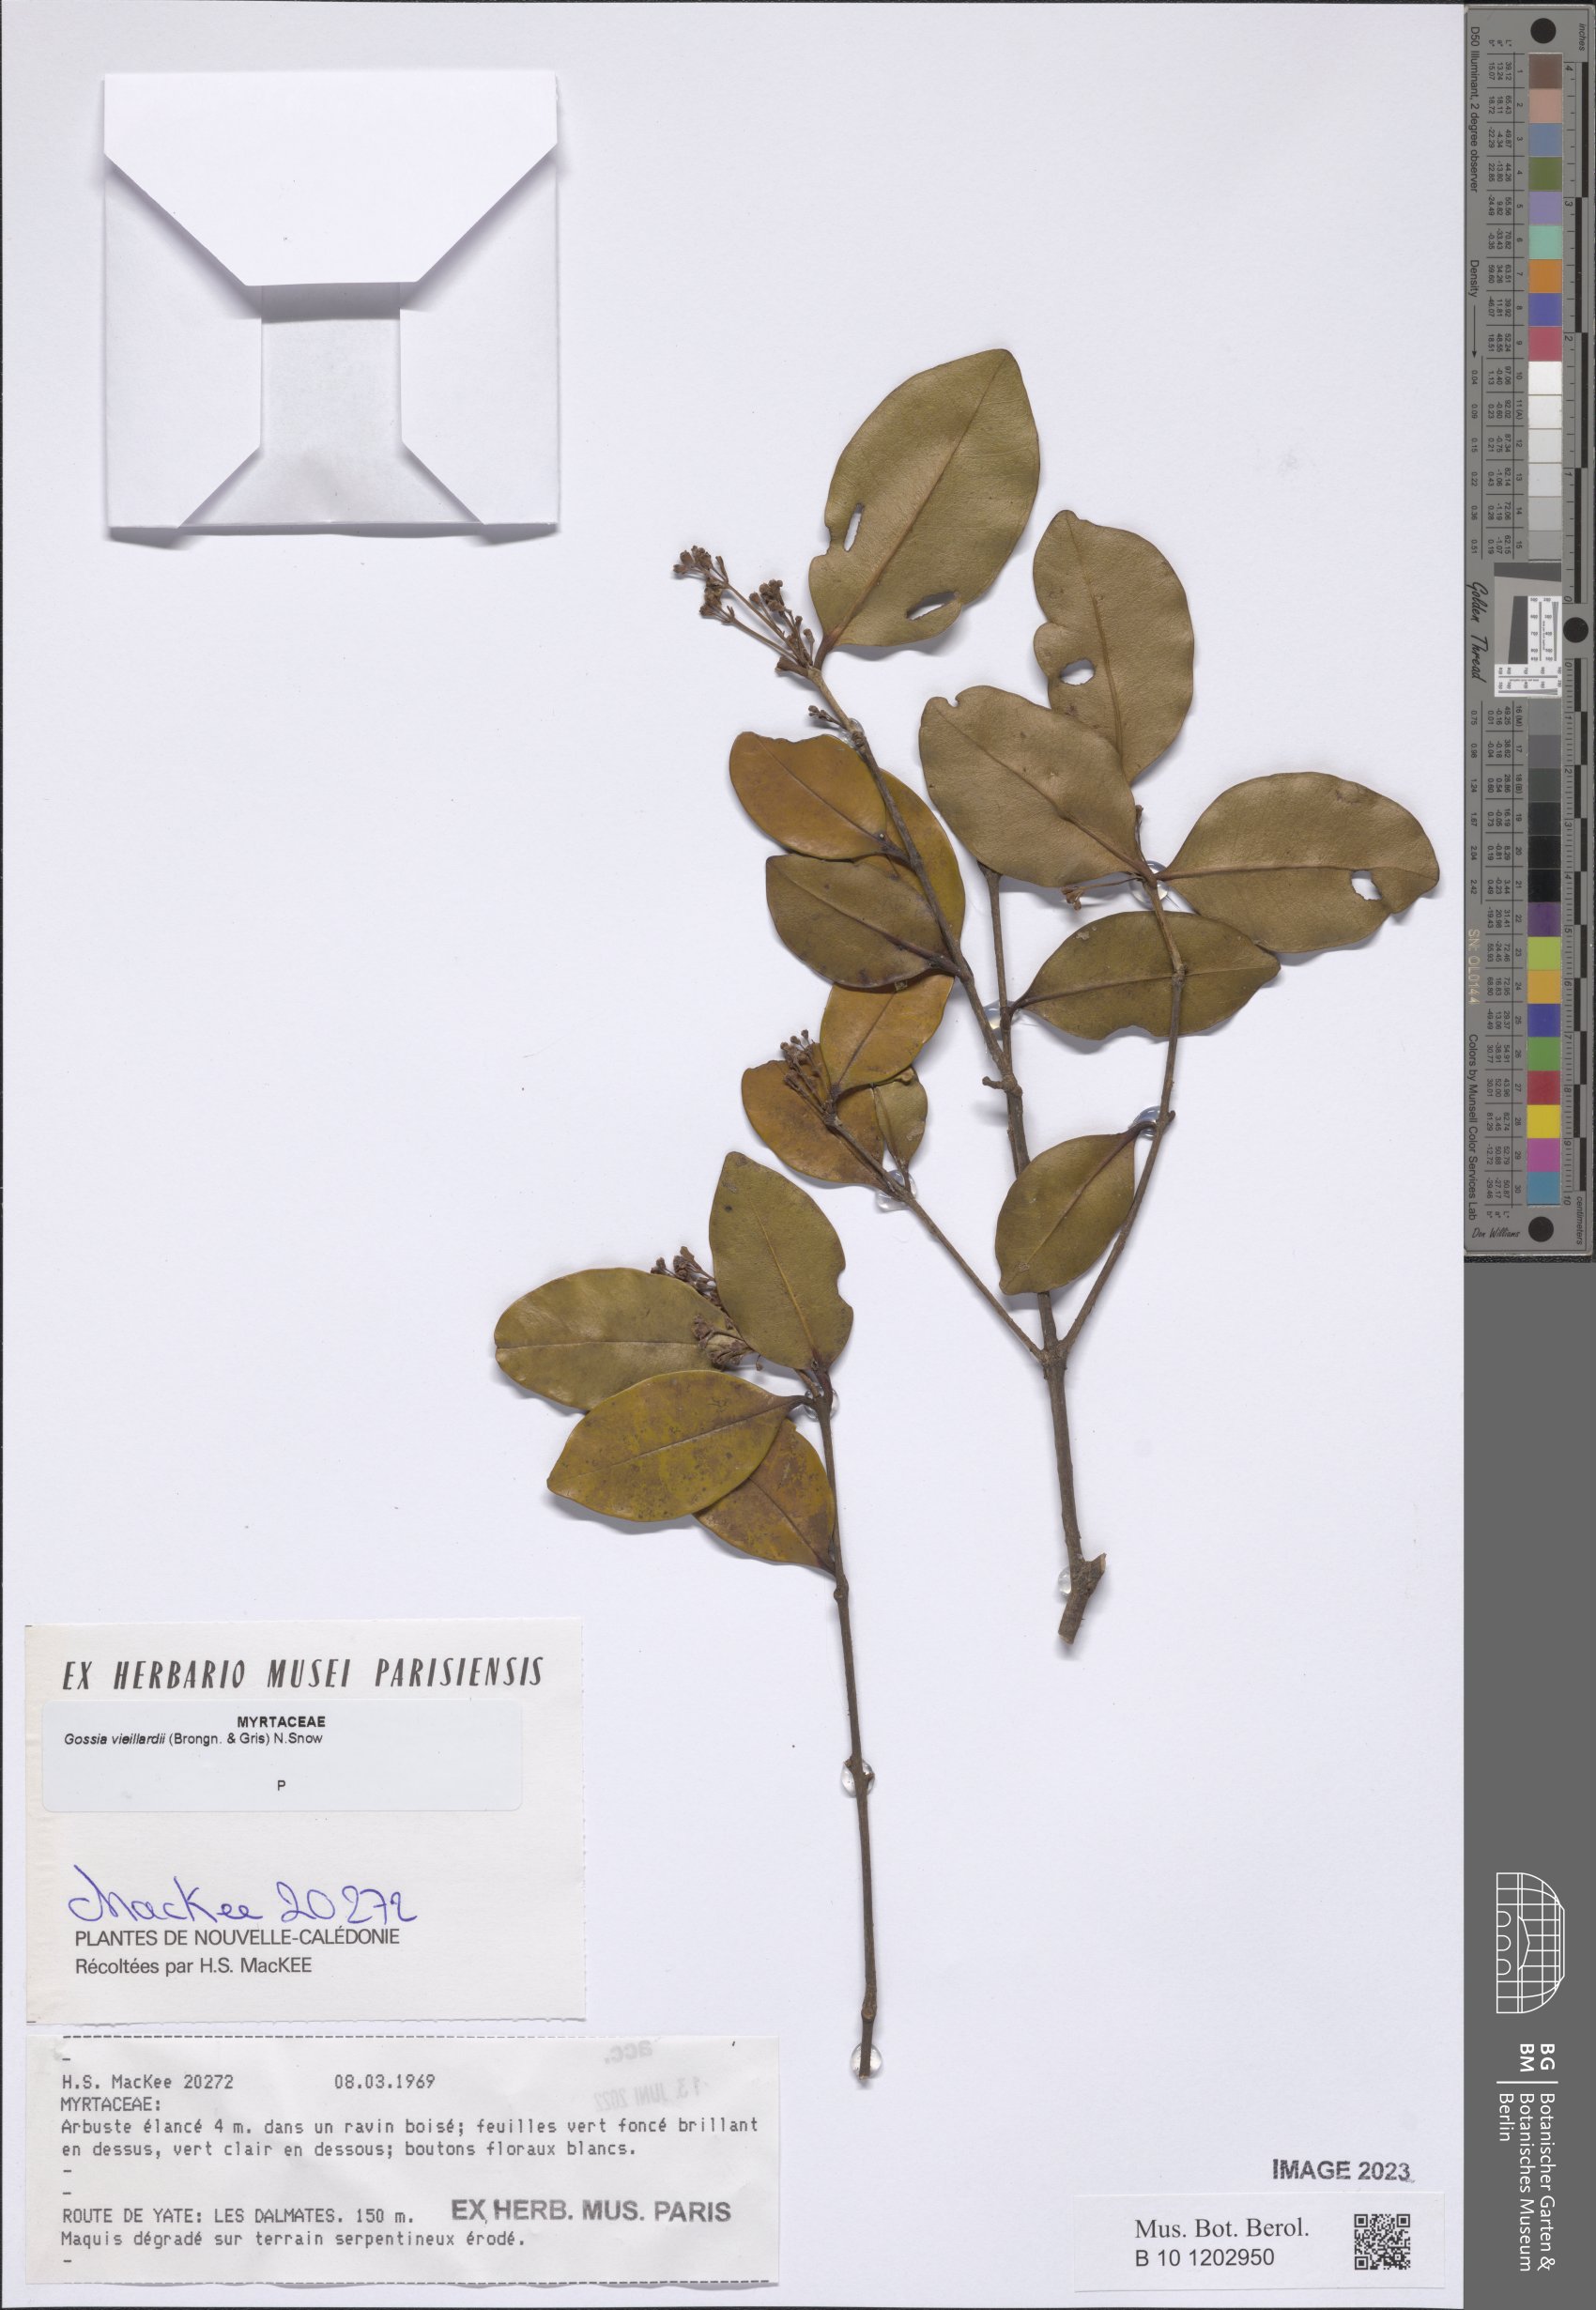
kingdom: Plantae
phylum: Tracheophyta
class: Magnoliopsida
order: Myrtales
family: Myrtaceae
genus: Gossia
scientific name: Gossia vieillardii
